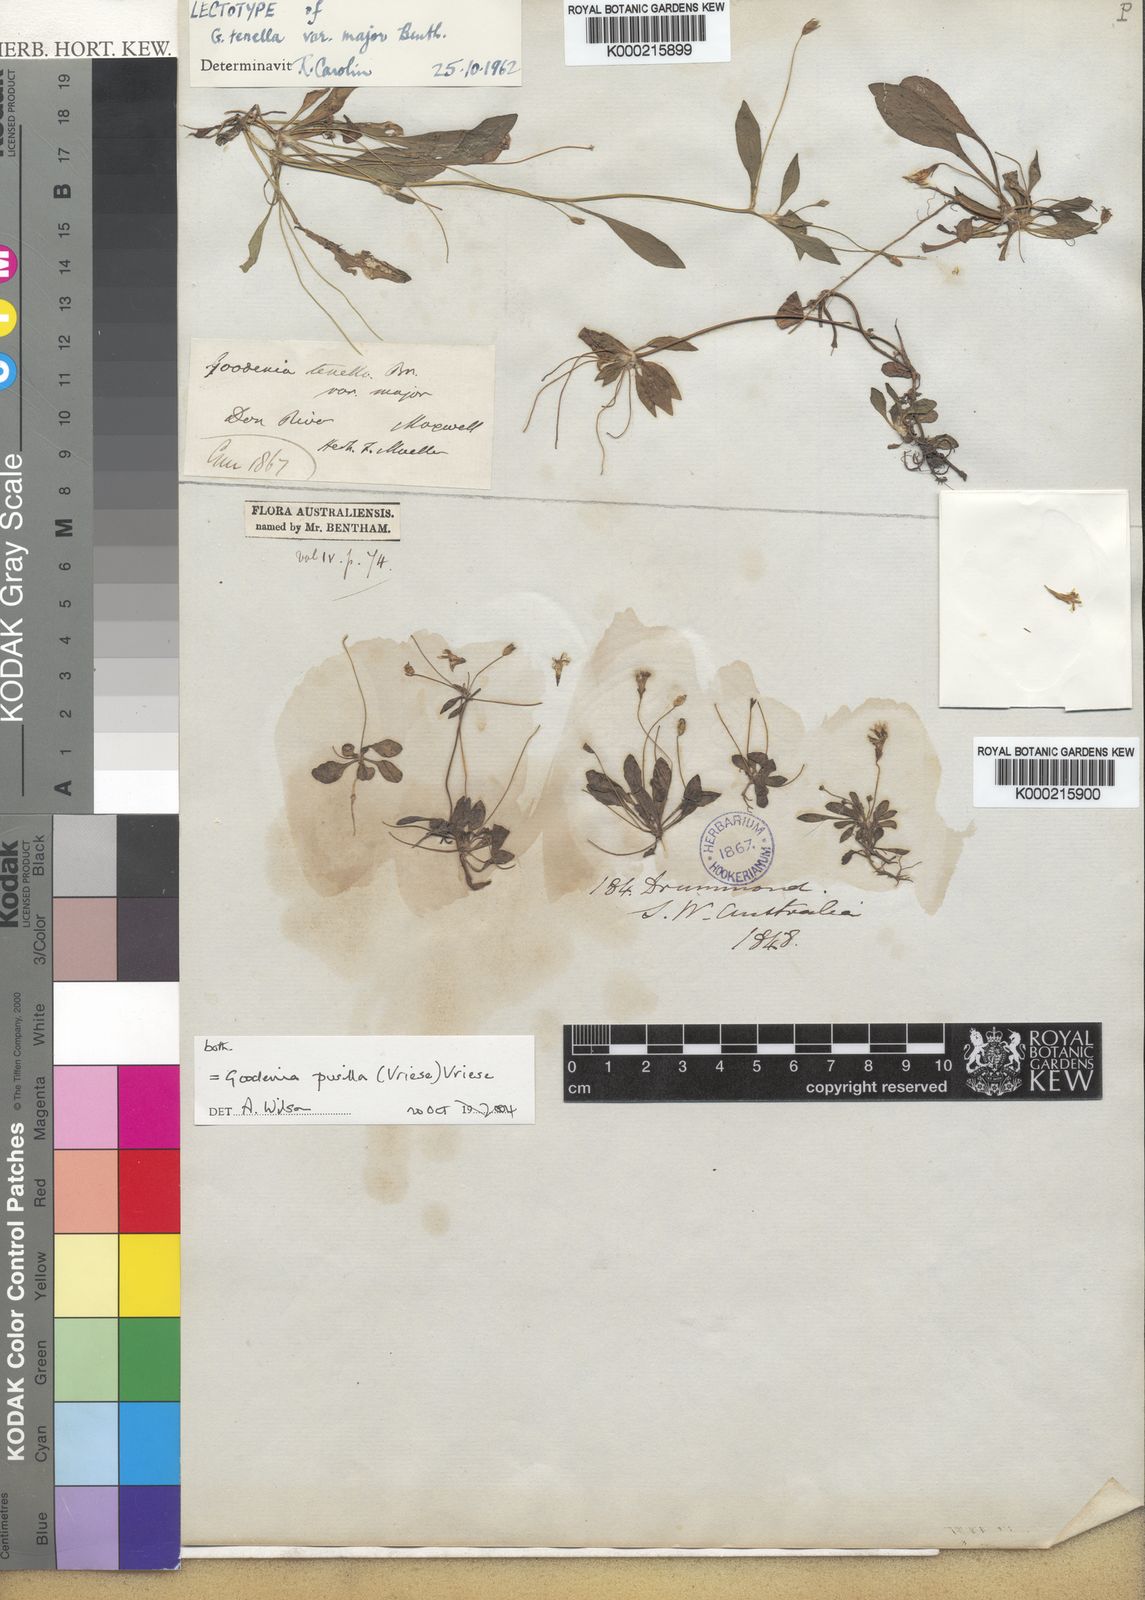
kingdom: Plantae
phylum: Tracheophyta
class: Magnoliopsida
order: Asterales
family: Goodeniaceae
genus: Goodenia
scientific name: Goodenia pusilla
